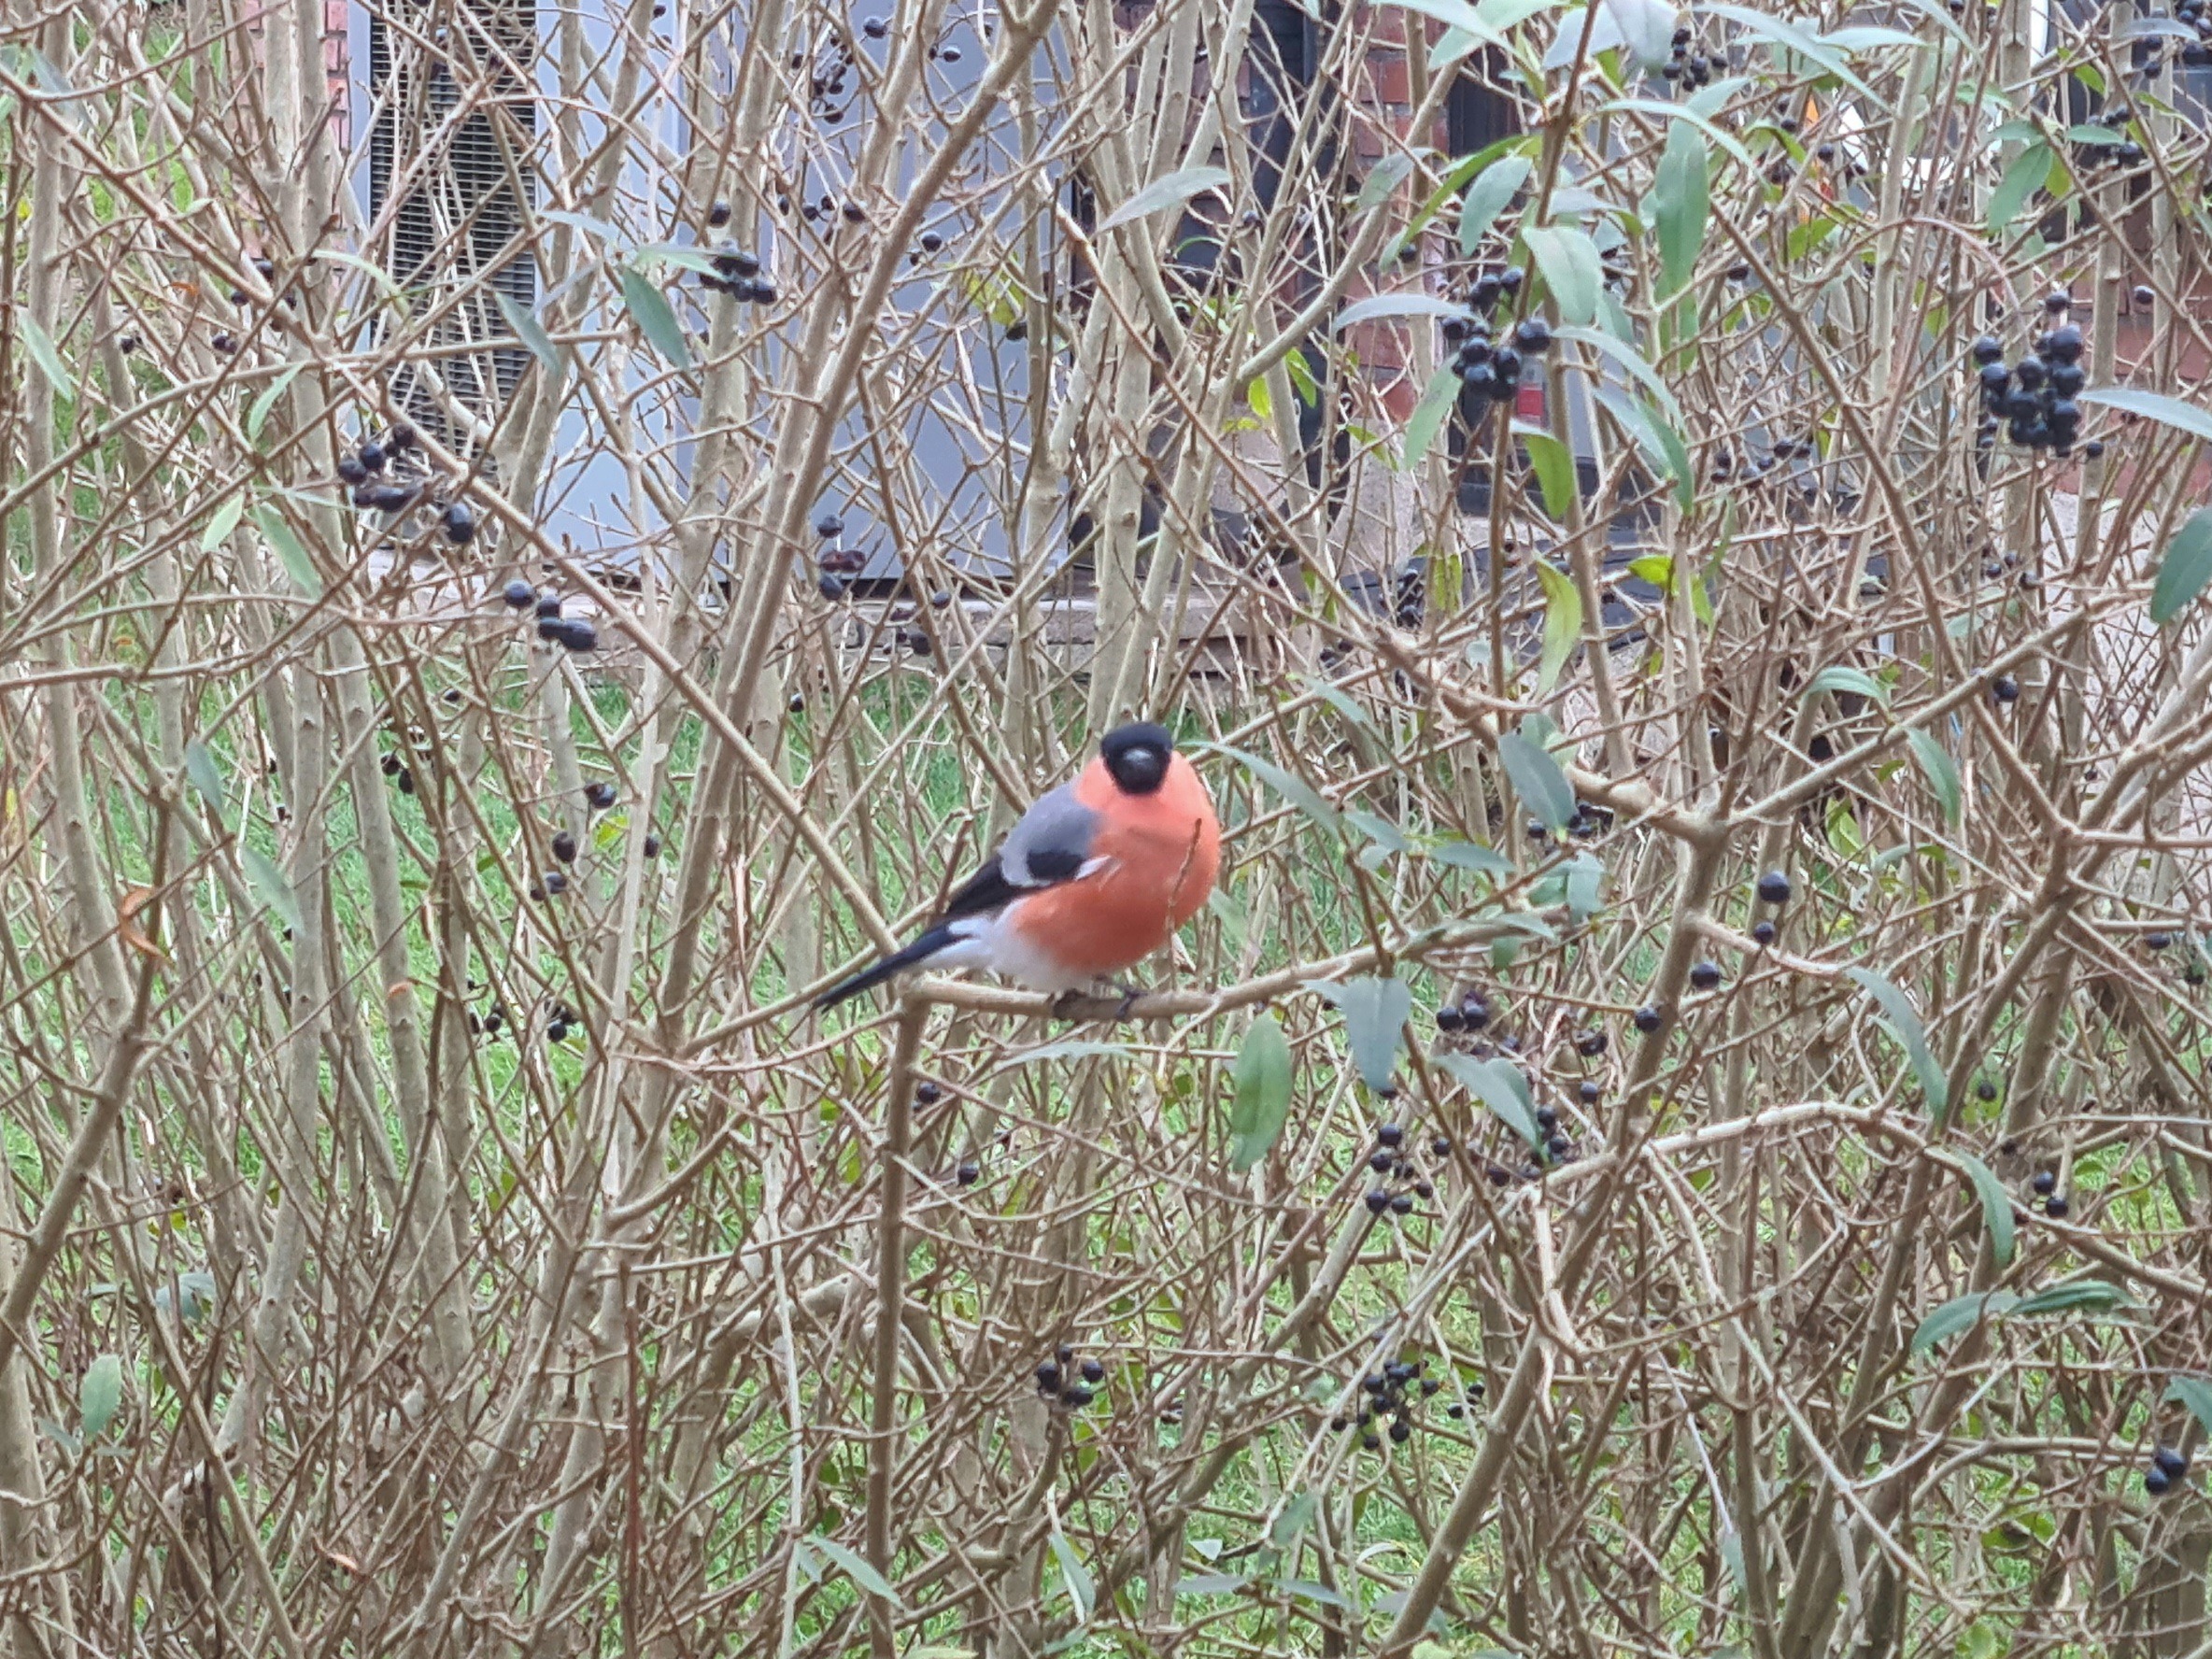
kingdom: Animalia
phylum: Chordata
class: Aves
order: Passeriformes
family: Fringillidae
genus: Pyrrhula
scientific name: Pyrrhula pyrrhula
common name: Dompap
